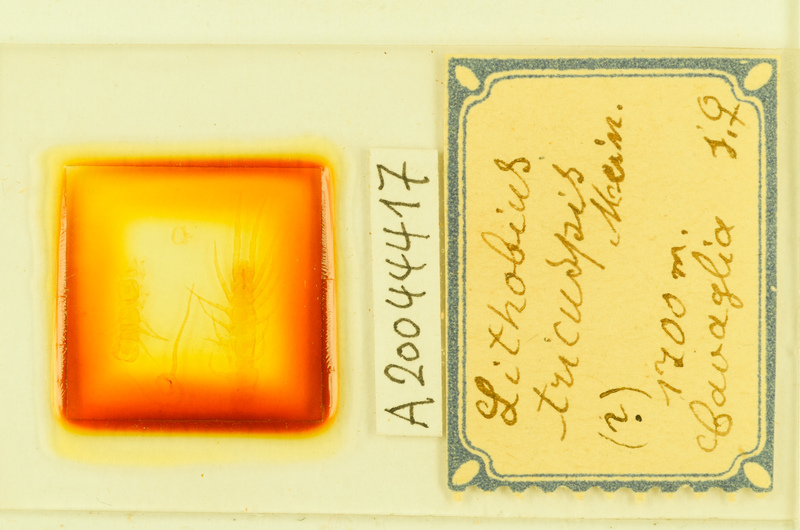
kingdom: Animalia
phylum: Arthropoda
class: Chilopoda
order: Lithobiomorpha
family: Lithobiidae
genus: Lithobius
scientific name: Lithobius tricuspis
